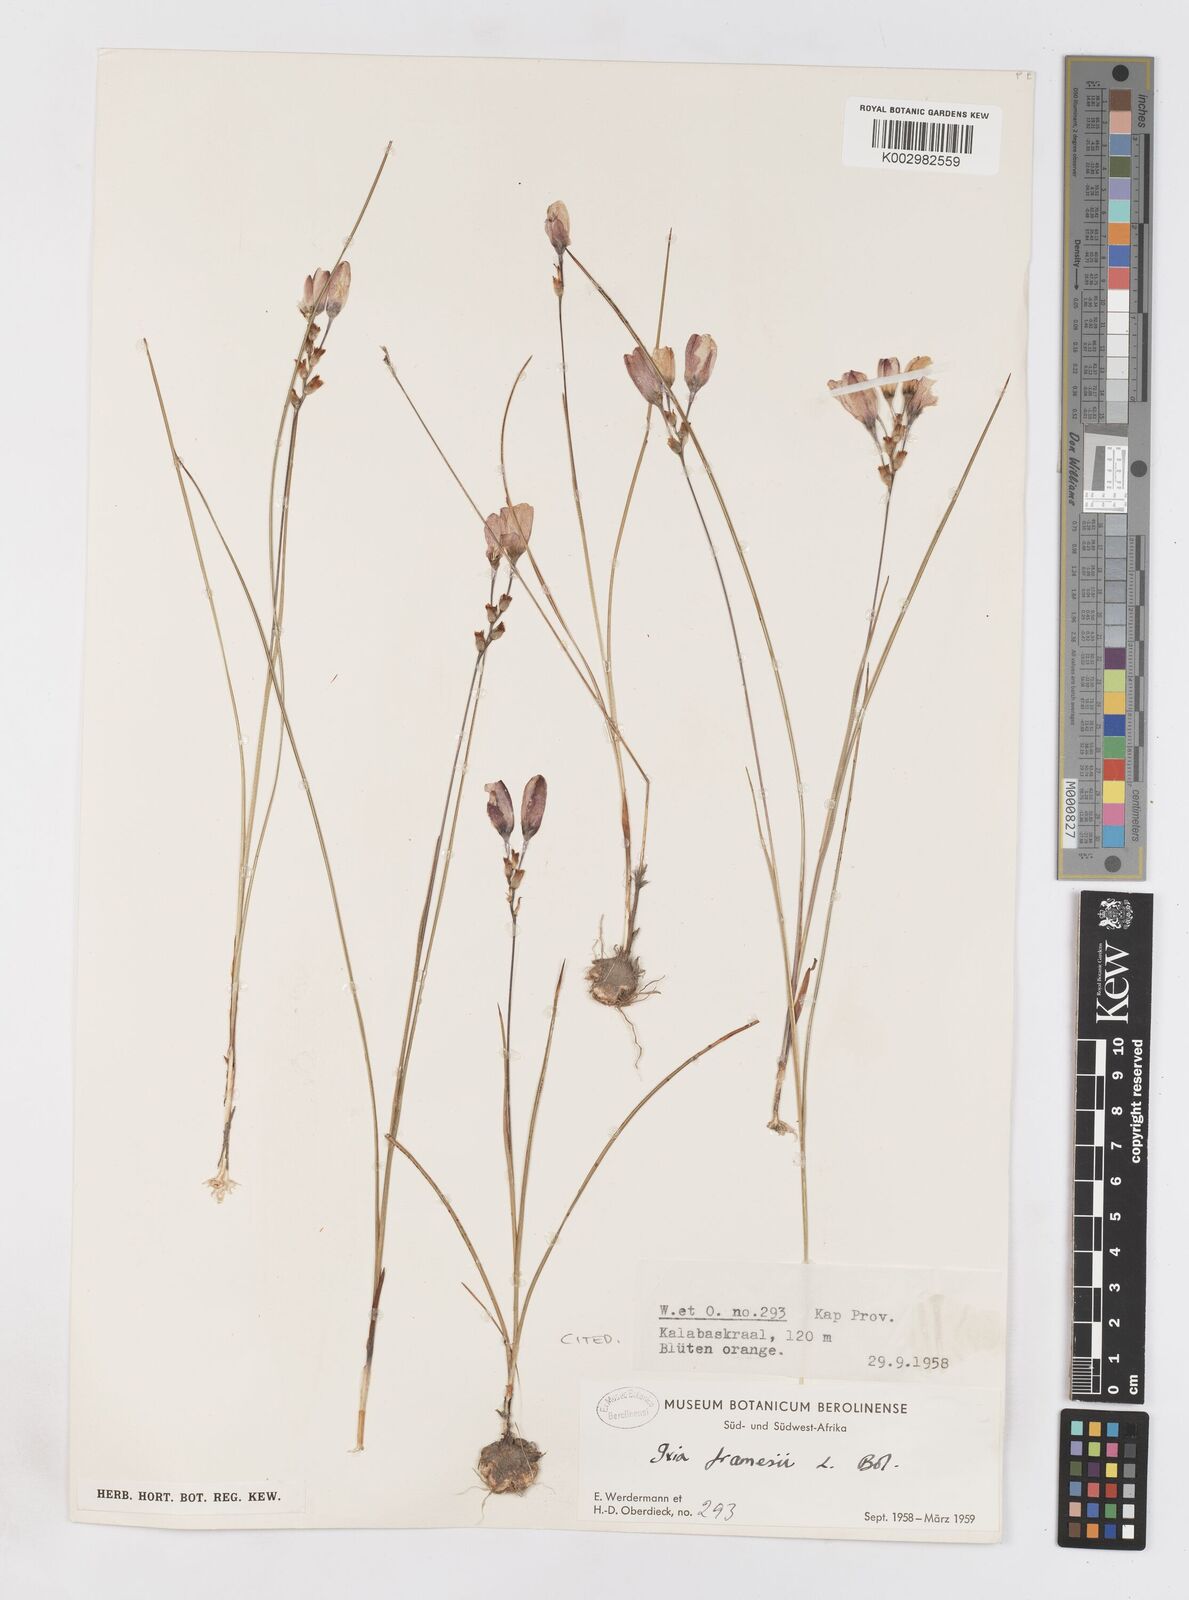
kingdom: Plantae
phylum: Tracheophyta
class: Liliopsida
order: Asparagales
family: Iridaceae
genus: Ixia
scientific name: Ixia tenuifolia
